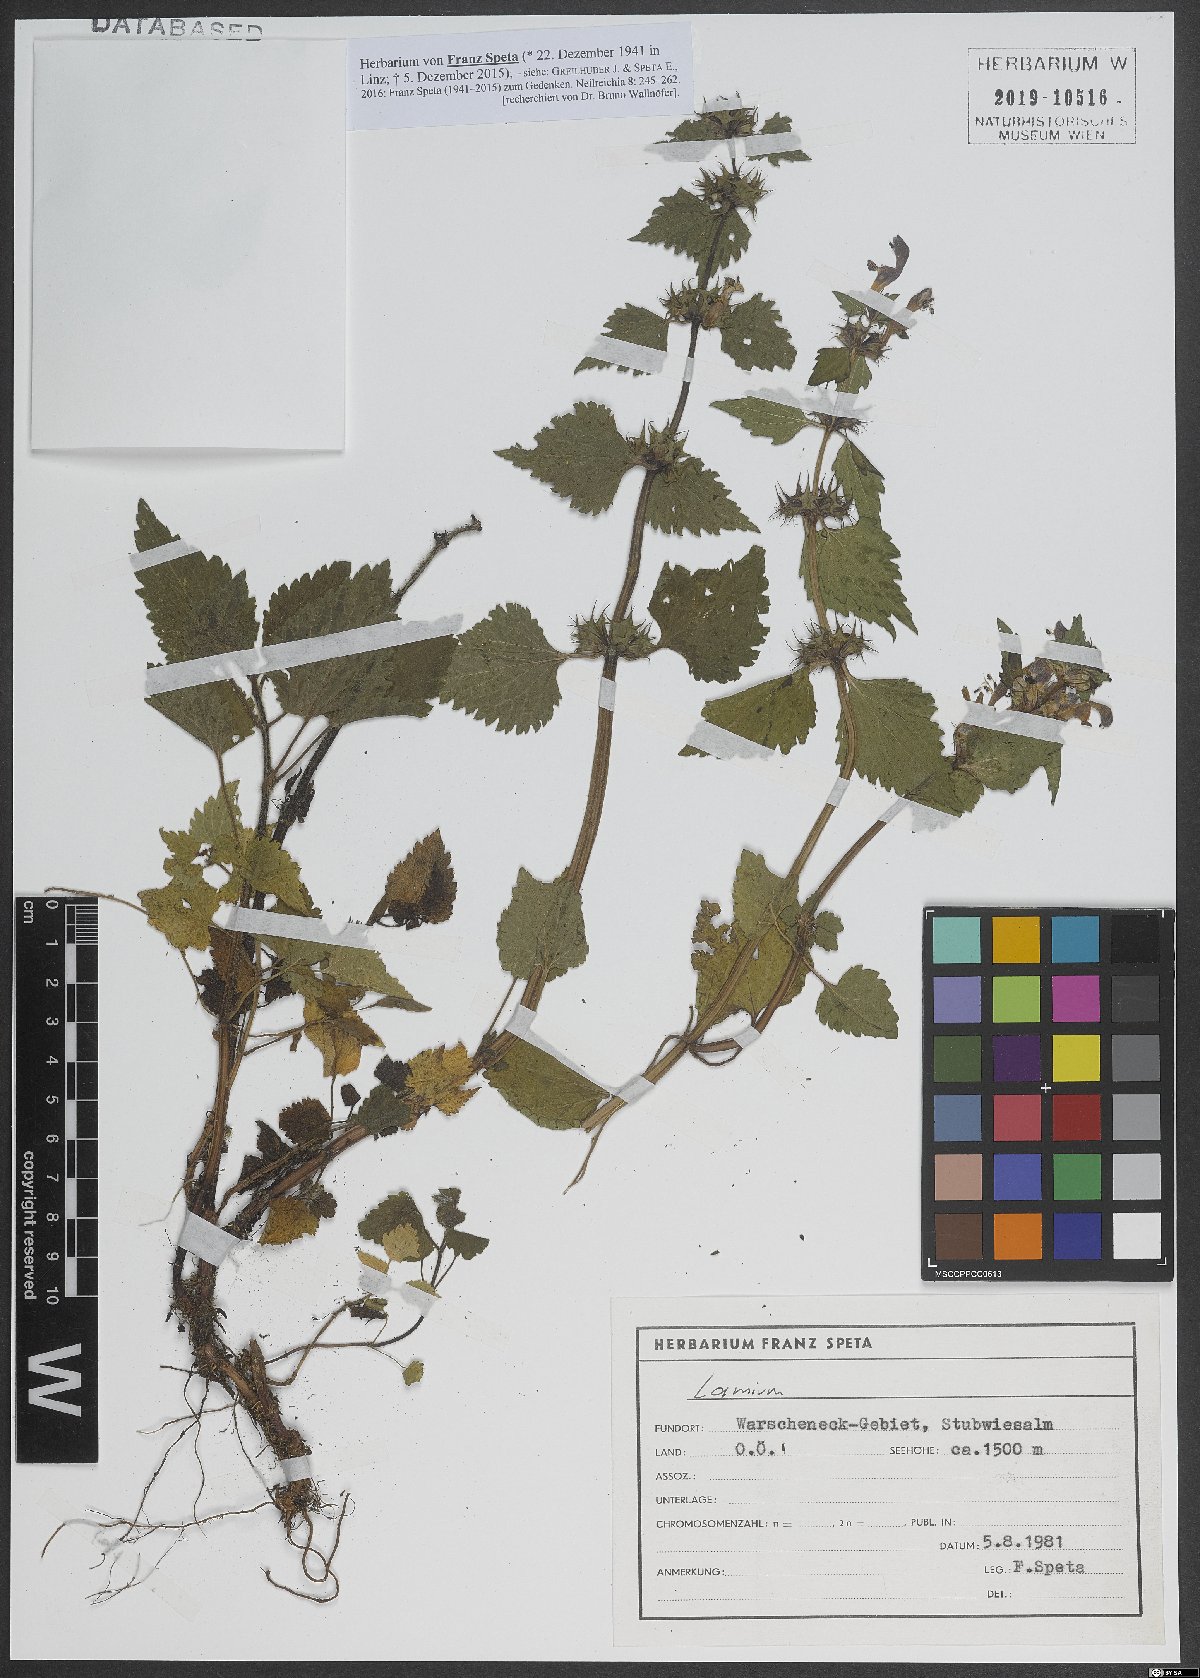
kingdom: Plantae
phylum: Tracheophyta
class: Magnoliopsida
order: Lamiales
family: Lamiaceae
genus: Lamium
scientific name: Lamium
